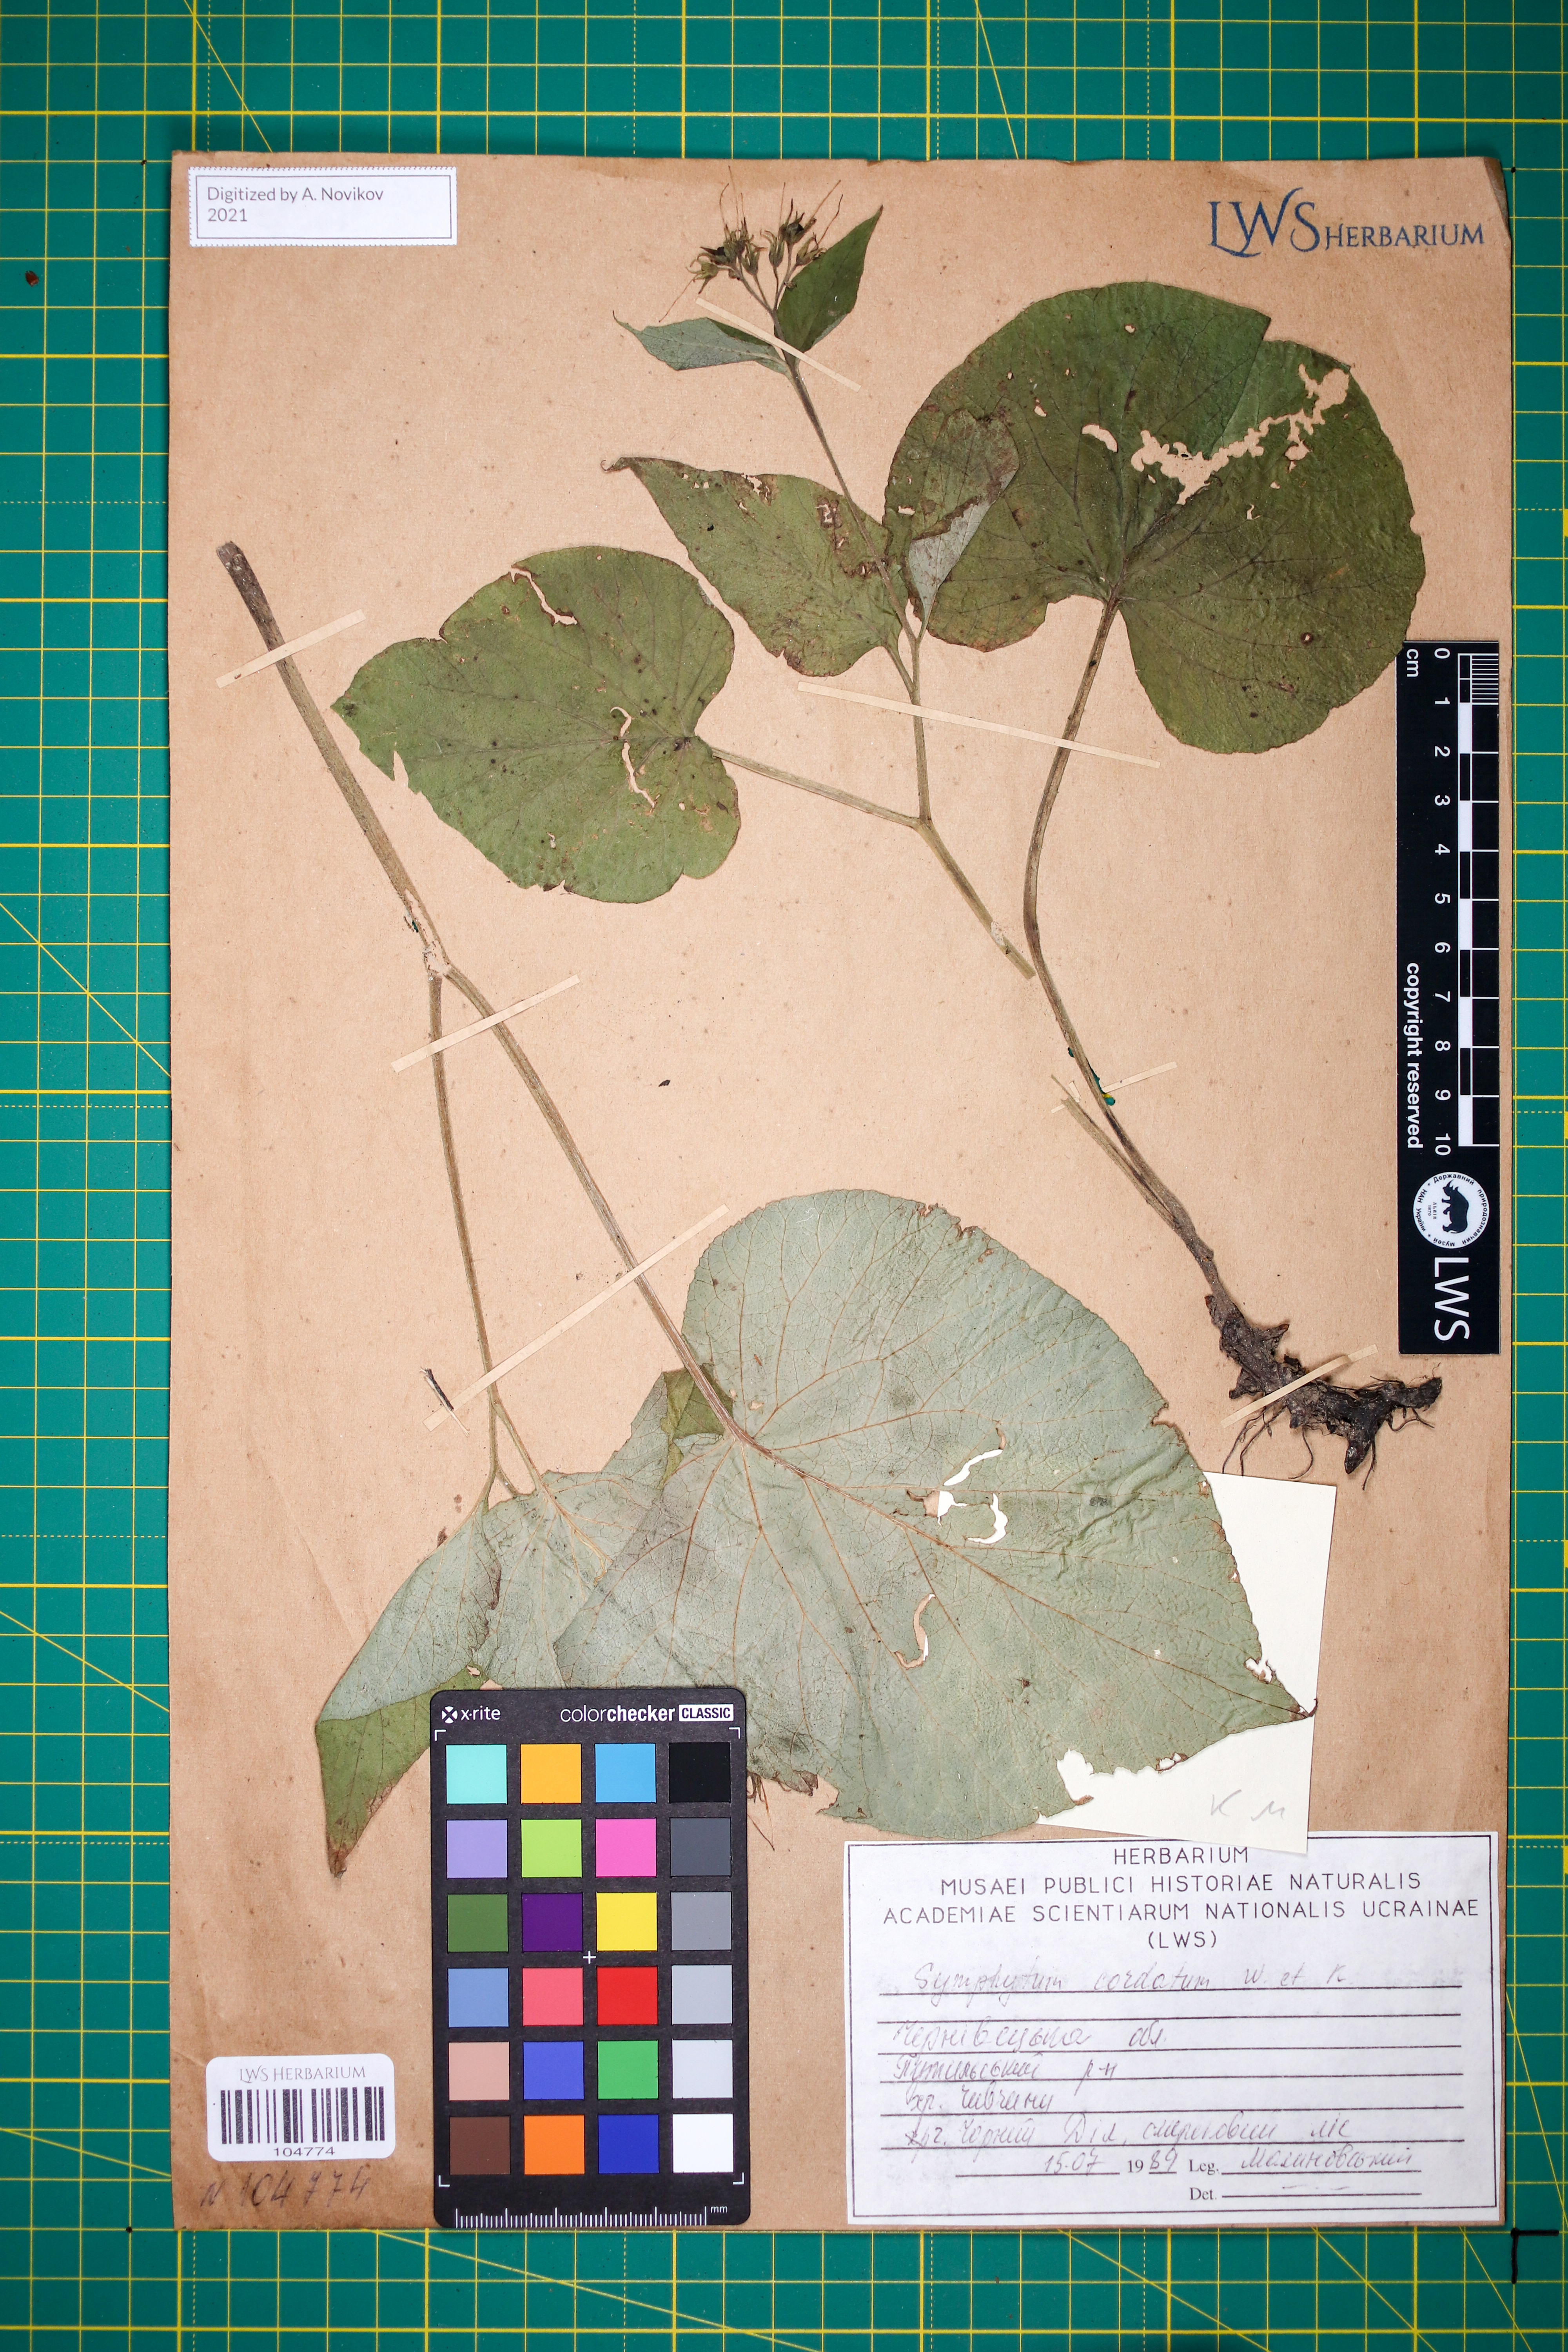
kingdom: Plantae
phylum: Tracheophyta
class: Magnoliopsida
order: Boraginales
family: Boraginaceae
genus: Symphytum
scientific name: Symphytum cordatum
